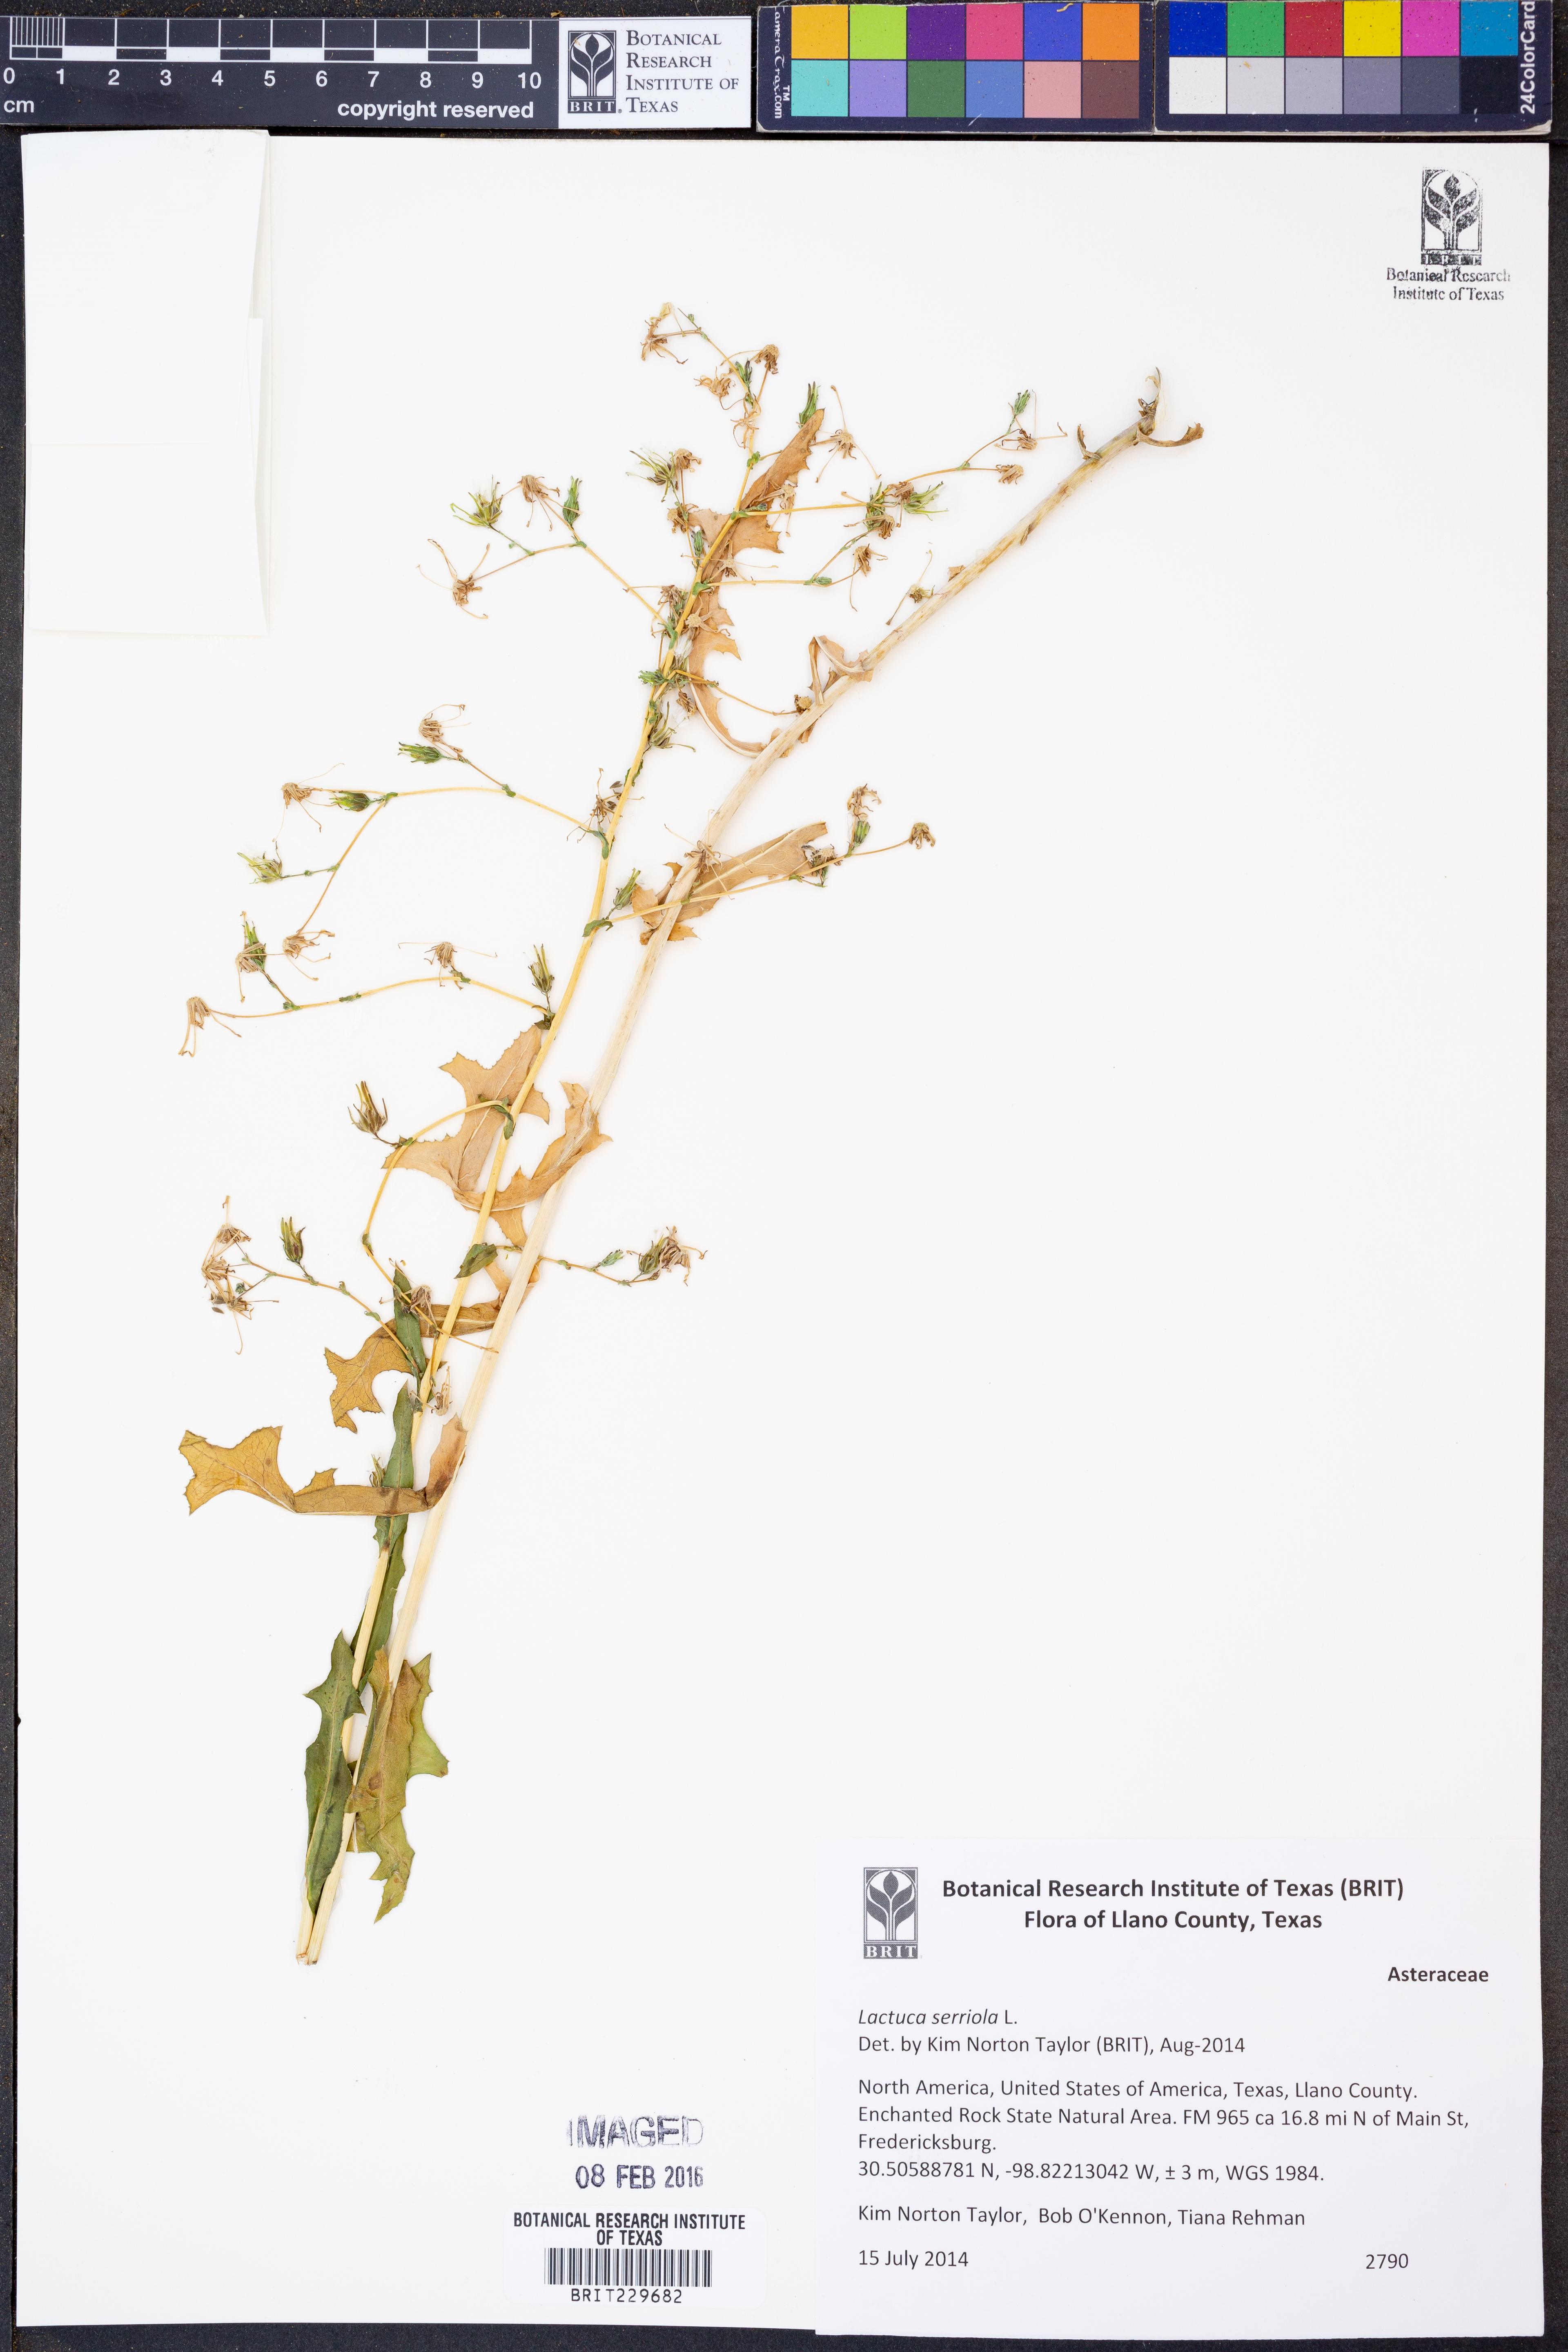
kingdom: Plantae
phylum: Tracheophyta
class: Magnoliopsida
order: Asterales
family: Asteraceae
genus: Lactuca
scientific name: Lactuca serriola
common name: Prickly lettuce
